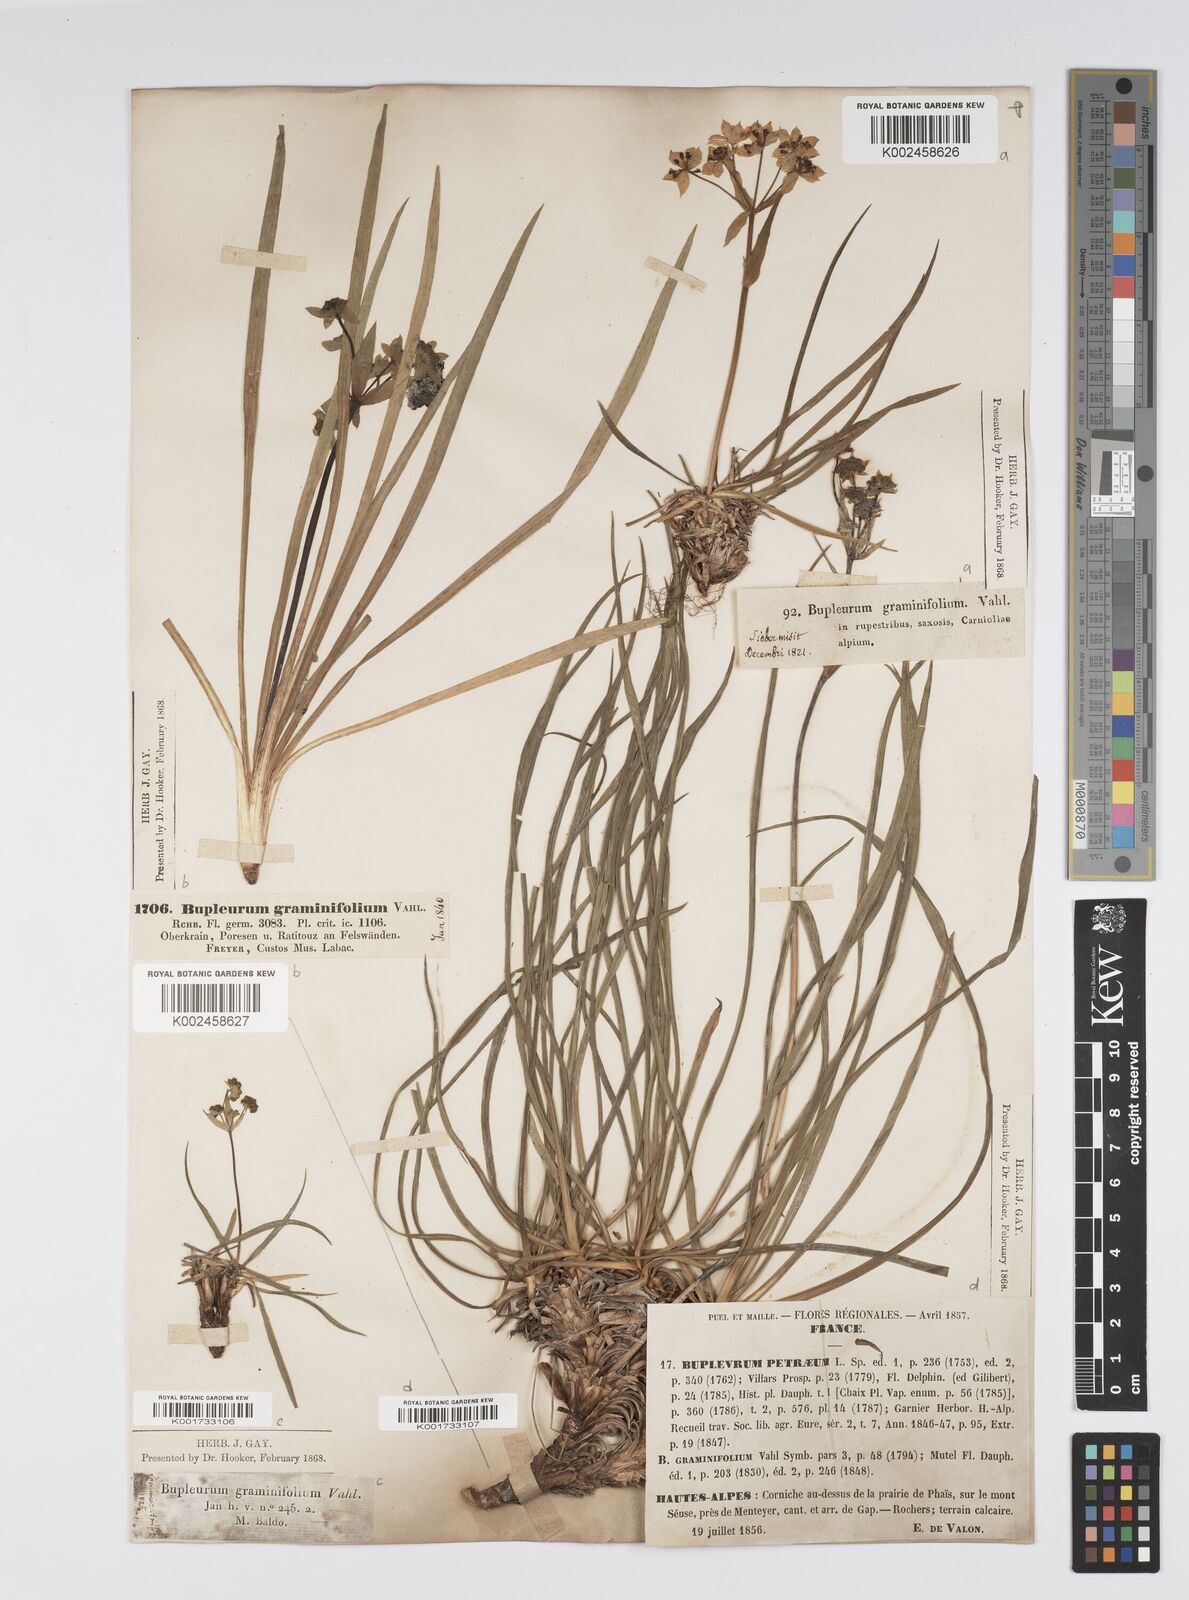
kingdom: Plantae
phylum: Tracheophyta
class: Magnoliopsida
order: Apiales
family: Apiaceae
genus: Bupleurum
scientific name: Bupleurum petraeum
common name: Rock hare's-ear
